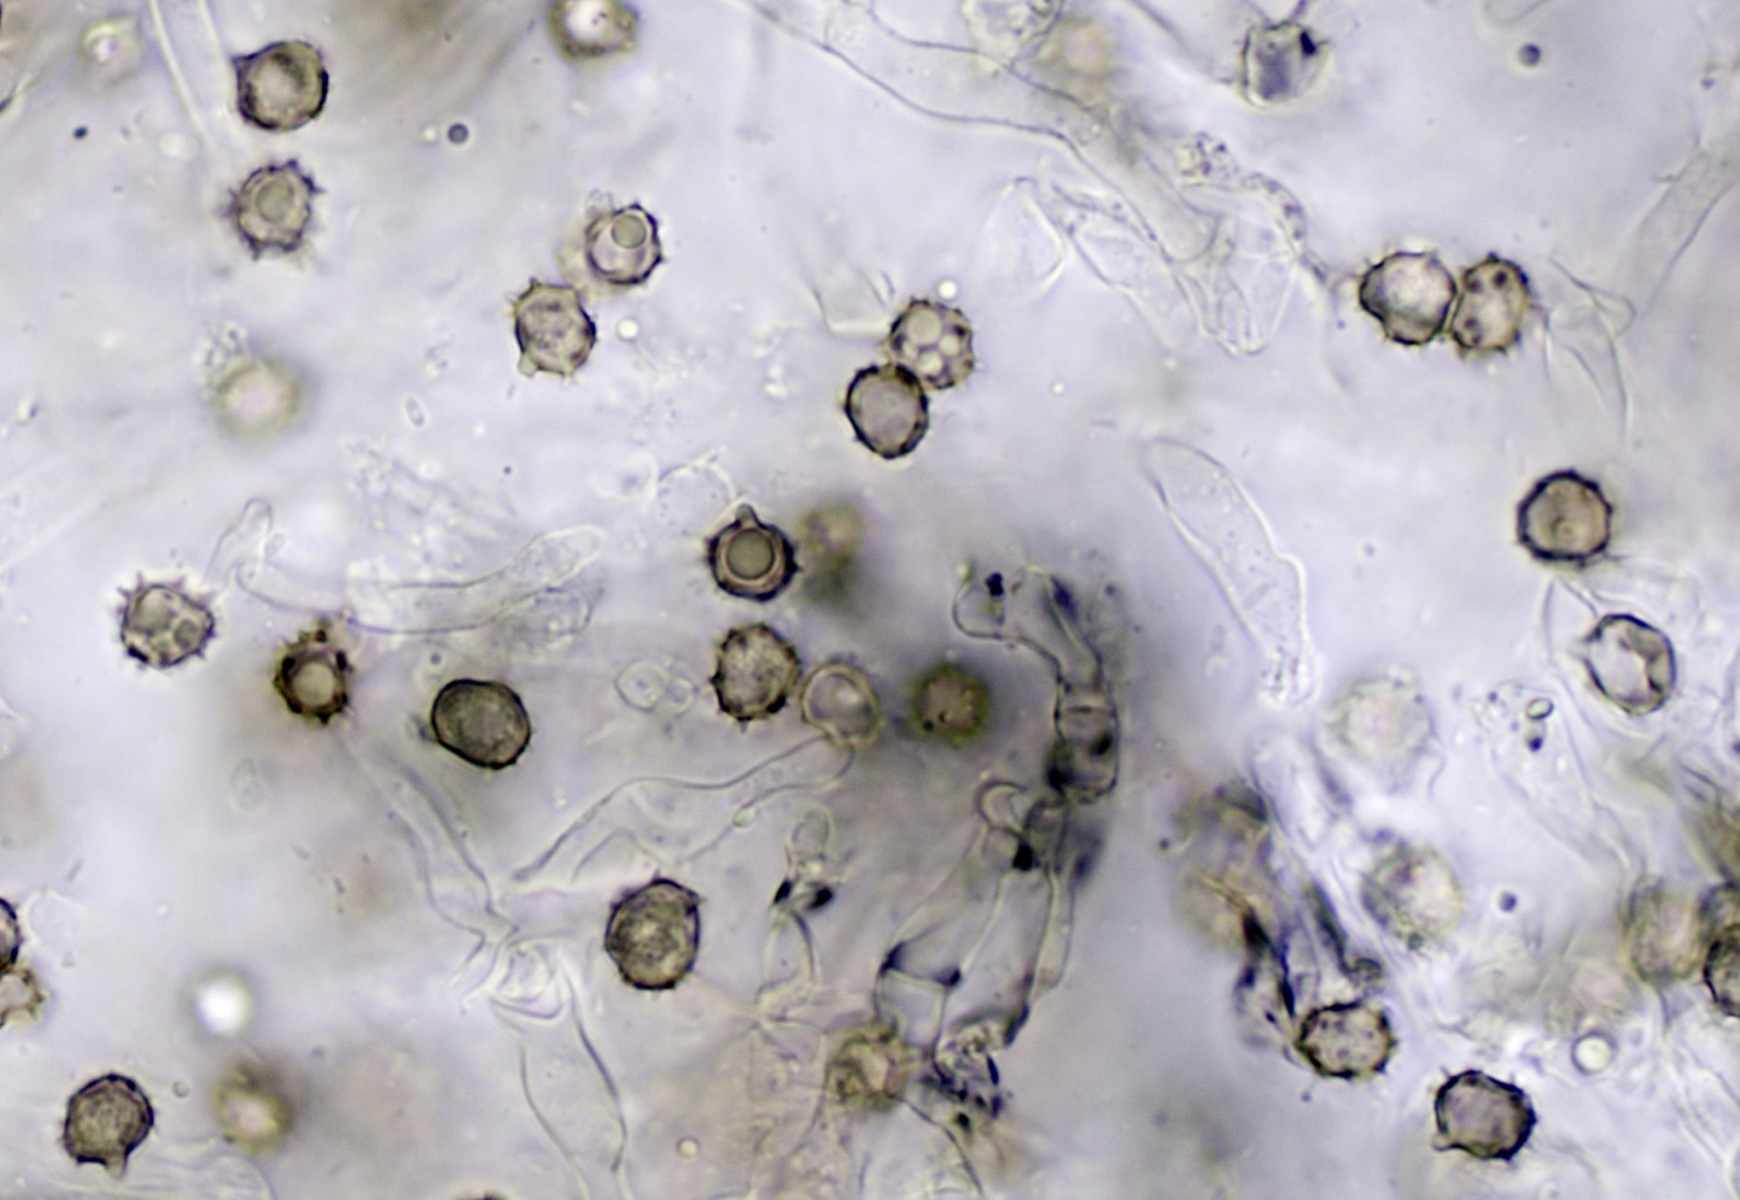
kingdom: Fungi
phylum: Basidiomycota
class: Agaricomycetes
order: Thelephorales
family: Thelephoraceae
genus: Tomentella
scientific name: Tomentella
